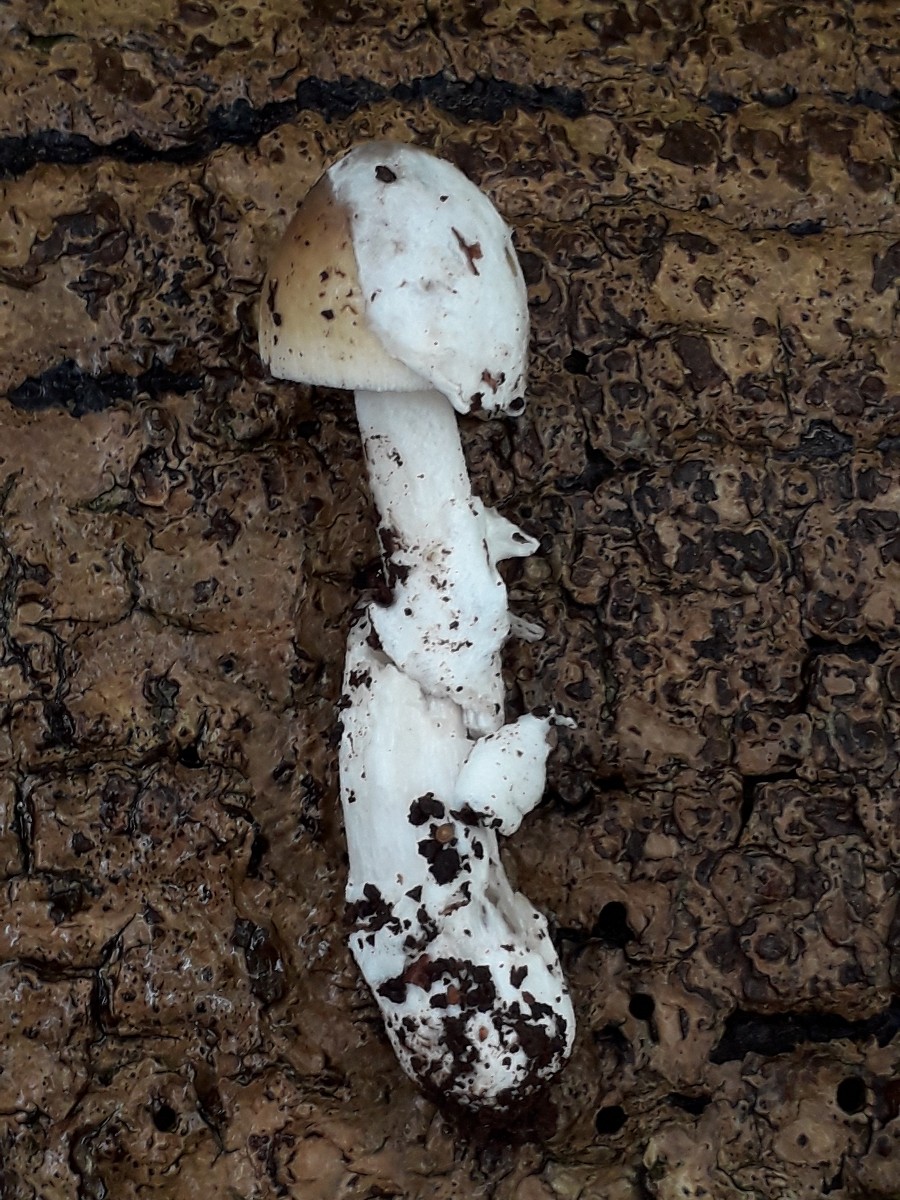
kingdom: Fungi
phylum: Basidiomycota
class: Agaricomycetes
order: Agaricales
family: Amanitaceae
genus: Amanita
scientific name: Amanita olivaceogrisea
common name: olivengrå kam-fluesvamp
